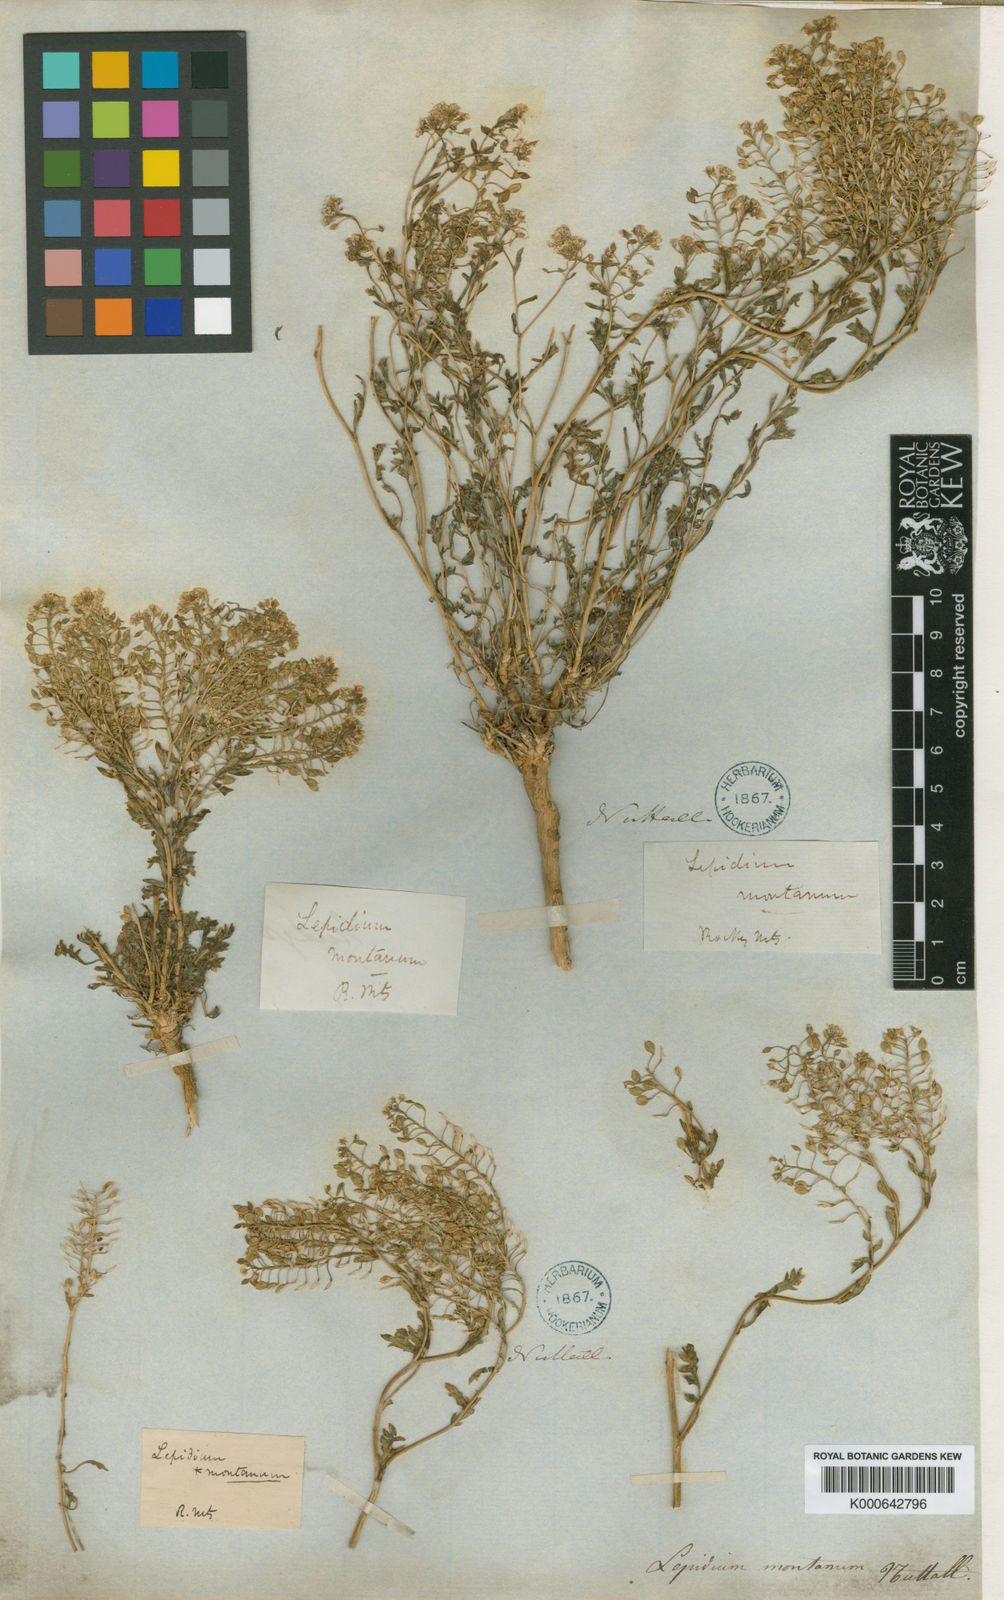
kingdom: Plantae
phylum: Tracheophyta
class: Magnoliopsida
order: Brassicales
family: Brassicaceae
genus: Lepidium
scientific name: Lepidium montanum
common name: Mountain pepperplant
